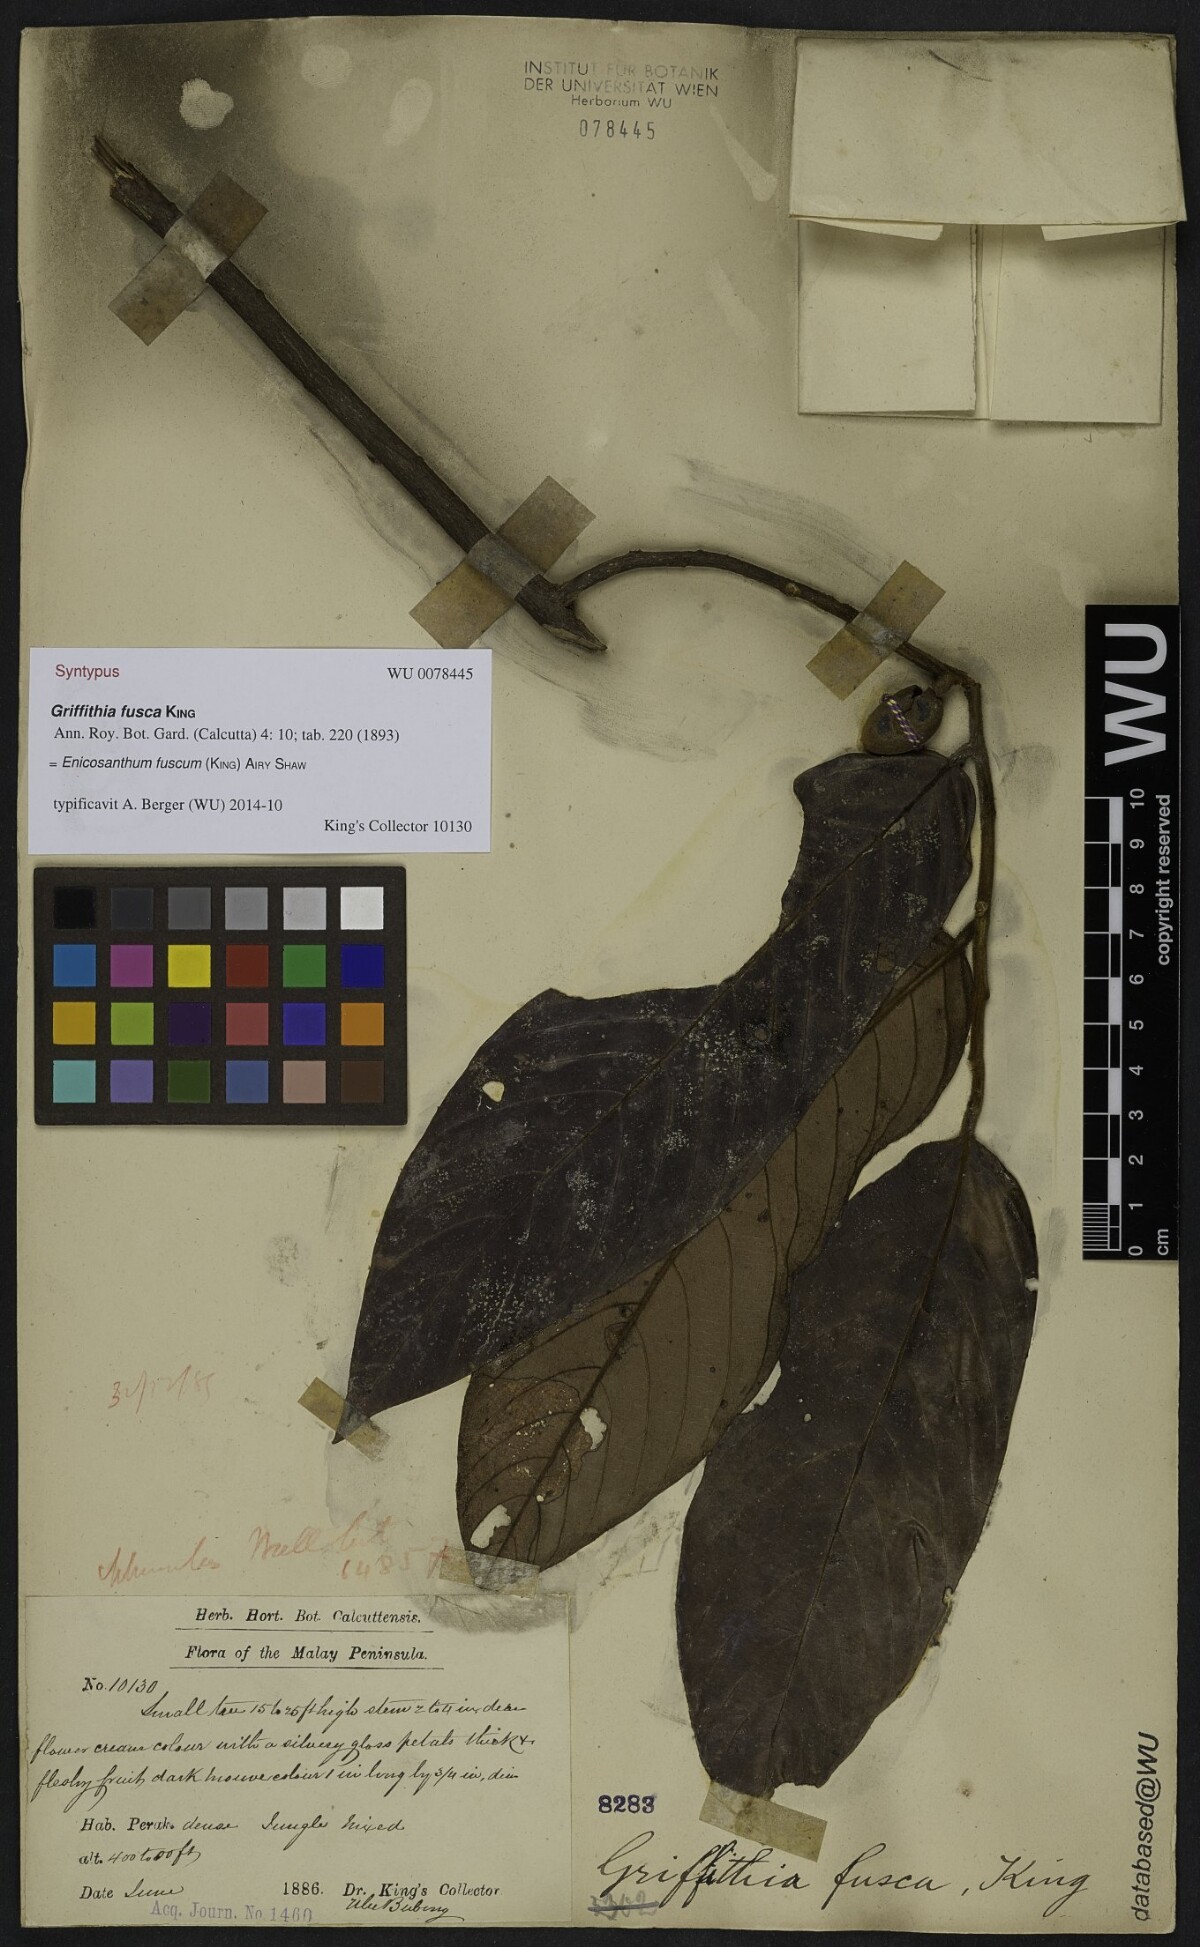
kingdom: Plantae
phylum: Tracheophyta
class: Magnoliopsida
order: Magnoliales
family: Annonaceae
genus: Enicosanthum
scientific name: Enicosanthum fuscum
